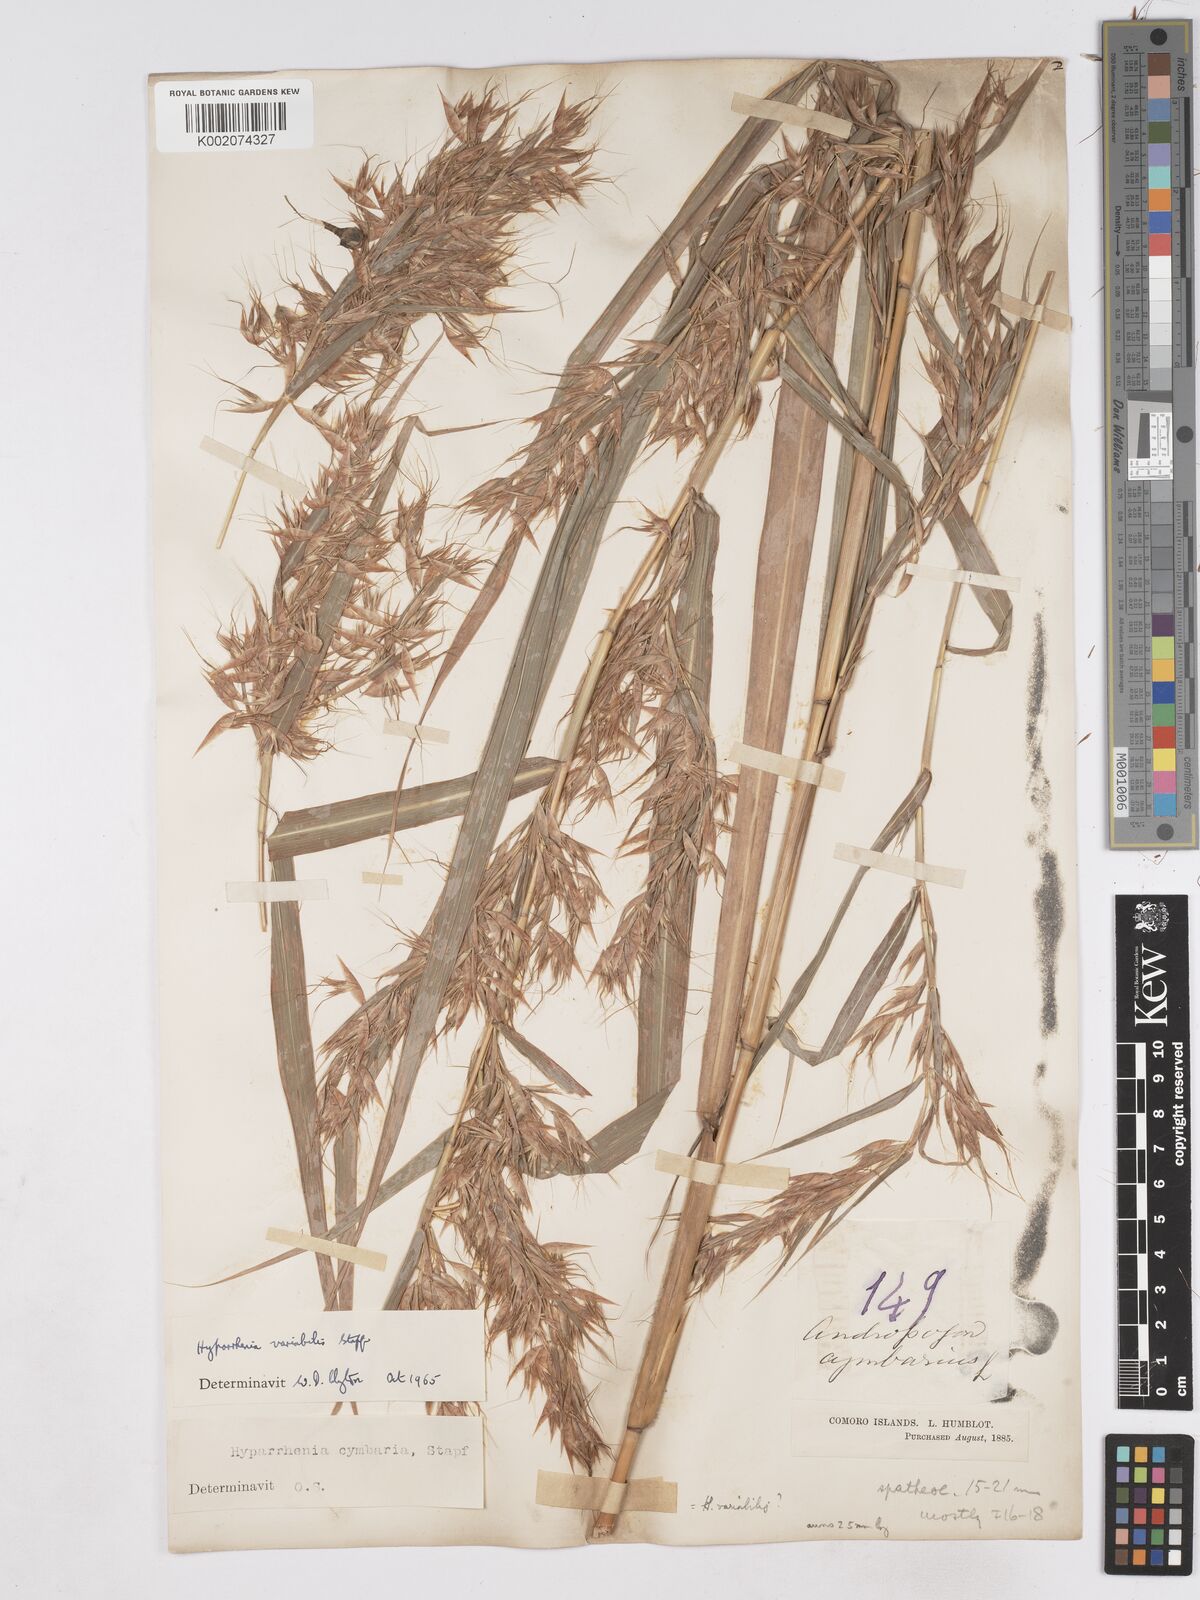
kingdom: Plantae
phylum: Tracheophyta
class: Liliopsida
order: Poales
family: Poaceae
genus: Hyparrhenia
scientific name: Hyparrhenia variabilis
